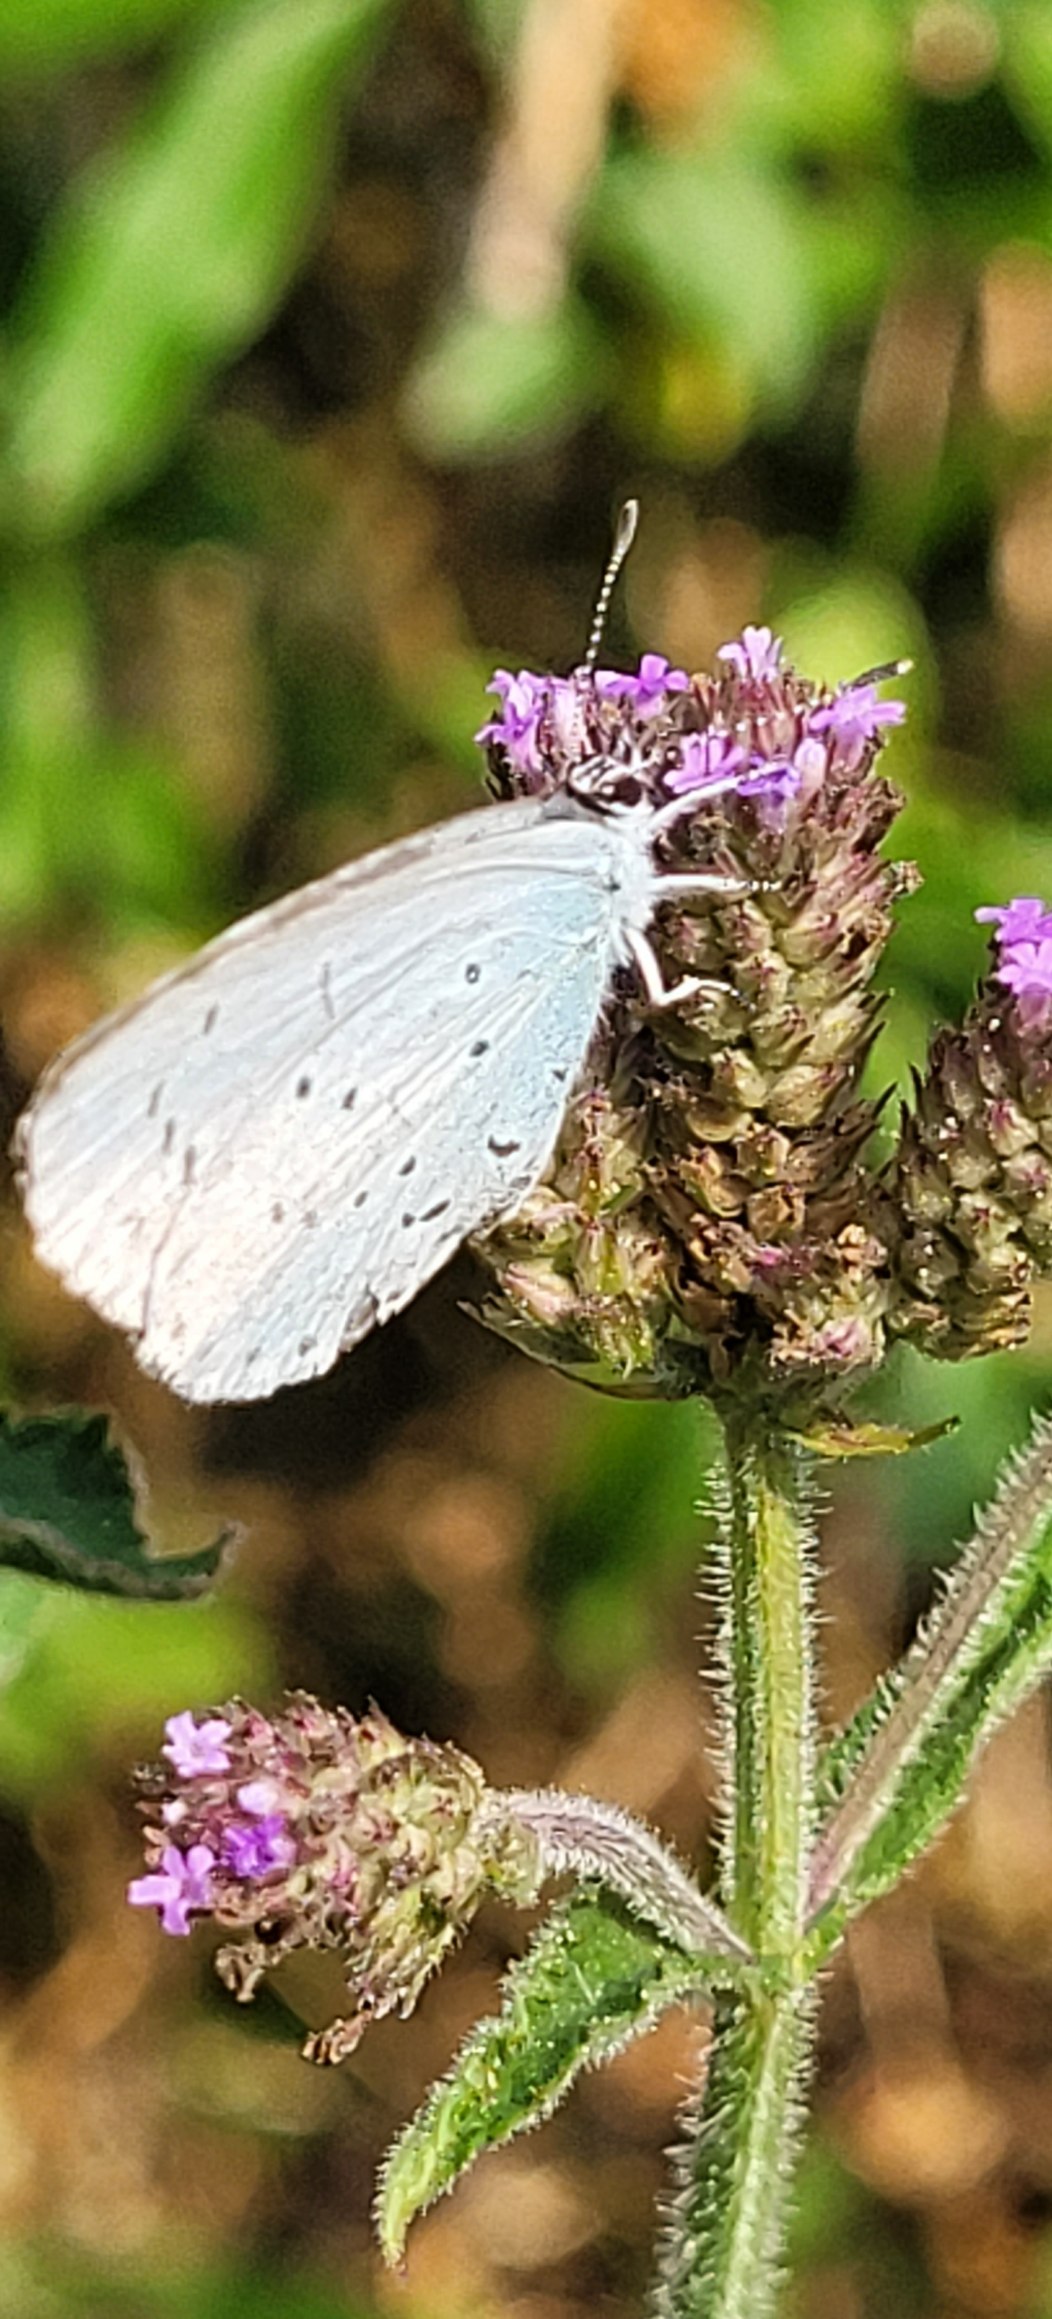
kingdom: Animalia
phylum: Arthropoda
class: Insecta
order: Lepidoptera
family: Lycaenidae
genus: Celastrina
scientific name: Celastrina argiolus
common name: Skovblåfugl
